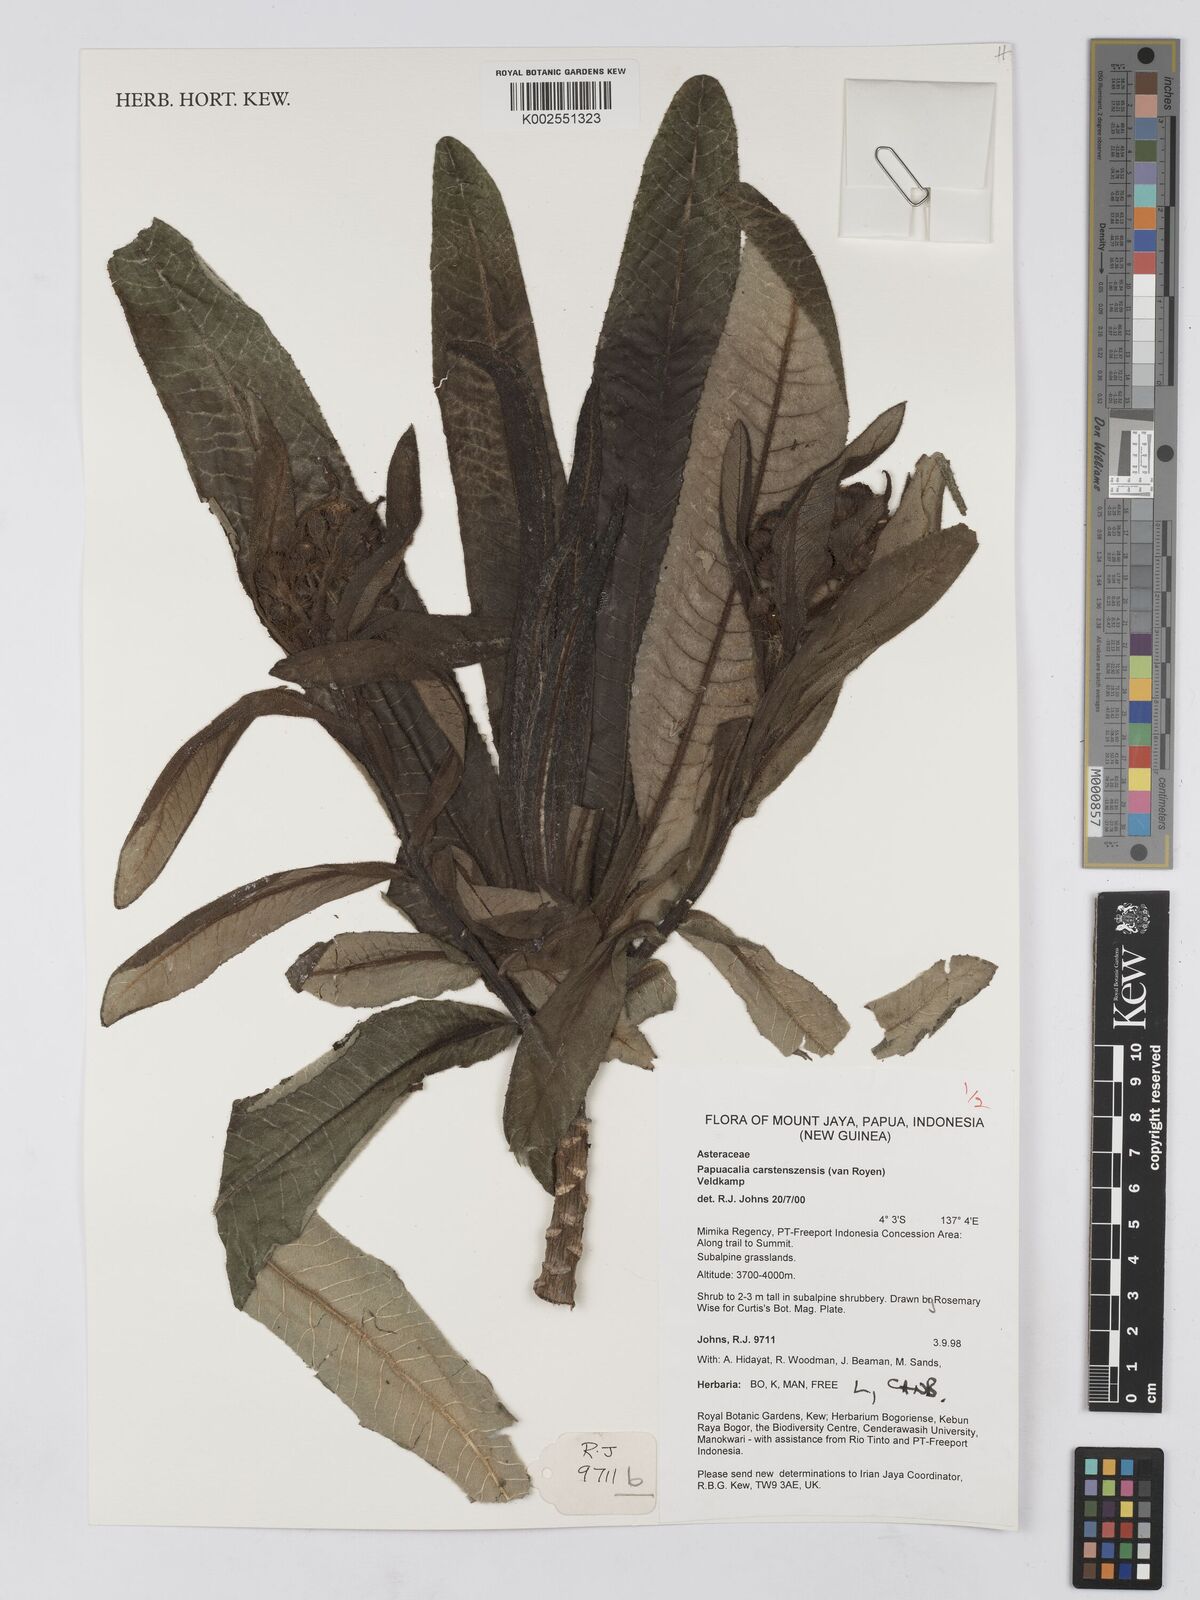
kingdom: Plantae
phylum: Tracheophyta
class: Magnoliopsida
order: Asterales
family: Asteraceae
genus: Papuacalia
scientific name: Papuacalia carstenszensis
